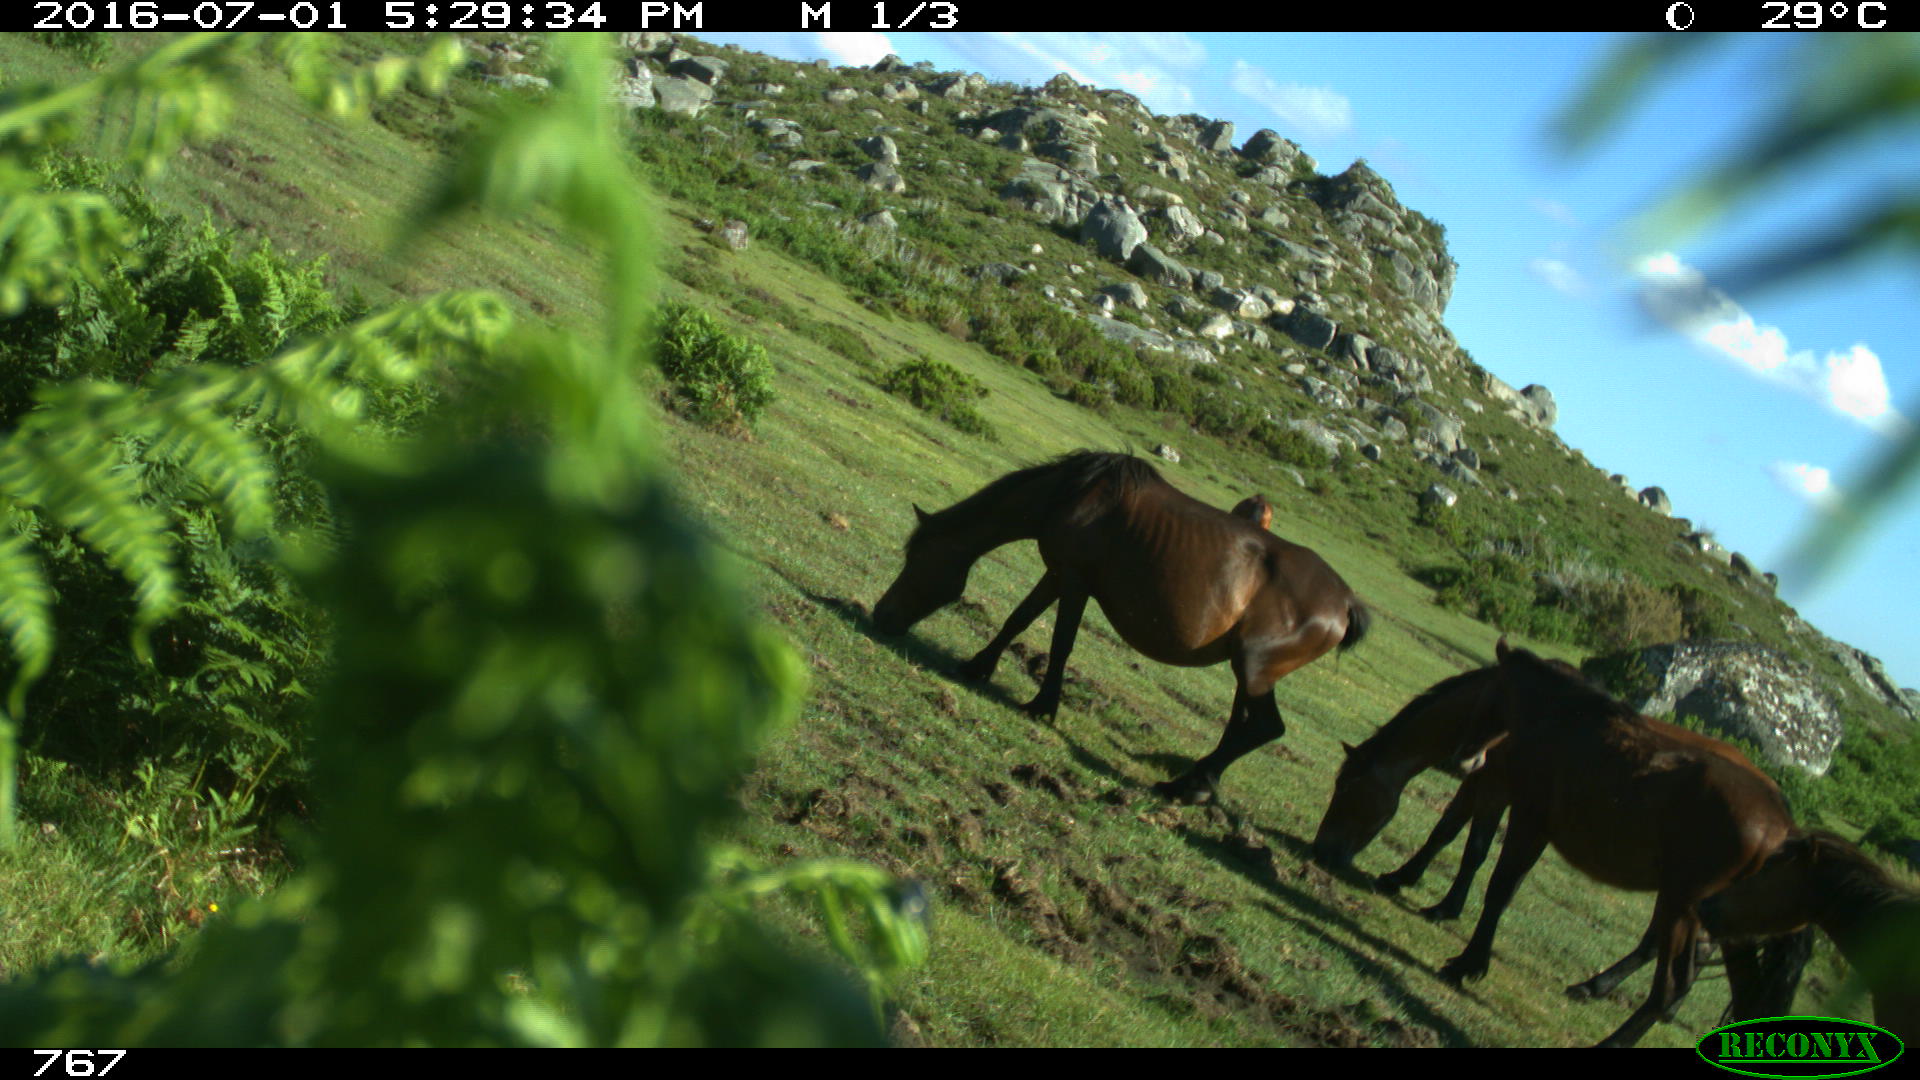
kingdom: Animalia
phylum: Chordata
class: Mammalia
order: Perissodactyla
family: Equidae
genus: Equus
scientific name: Equus caballus
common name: Horse
